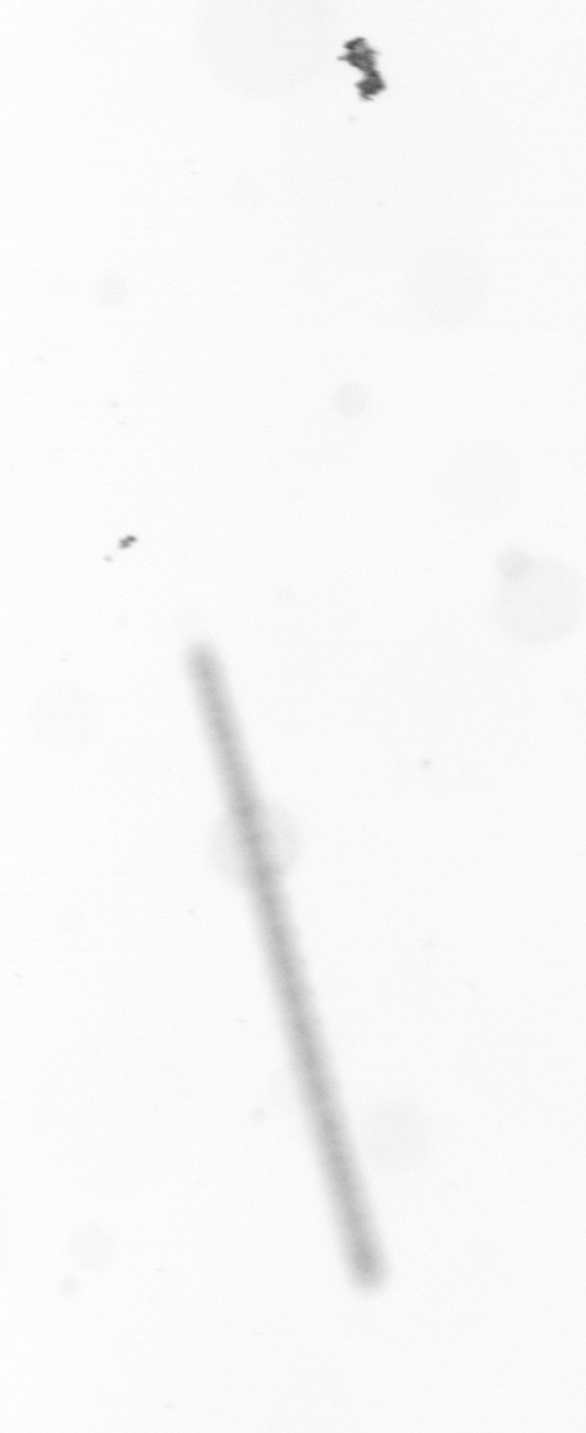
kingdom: Chromista
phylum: Ochrophyta
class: Bacillariophyceae
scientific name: Bacillariophyceae
